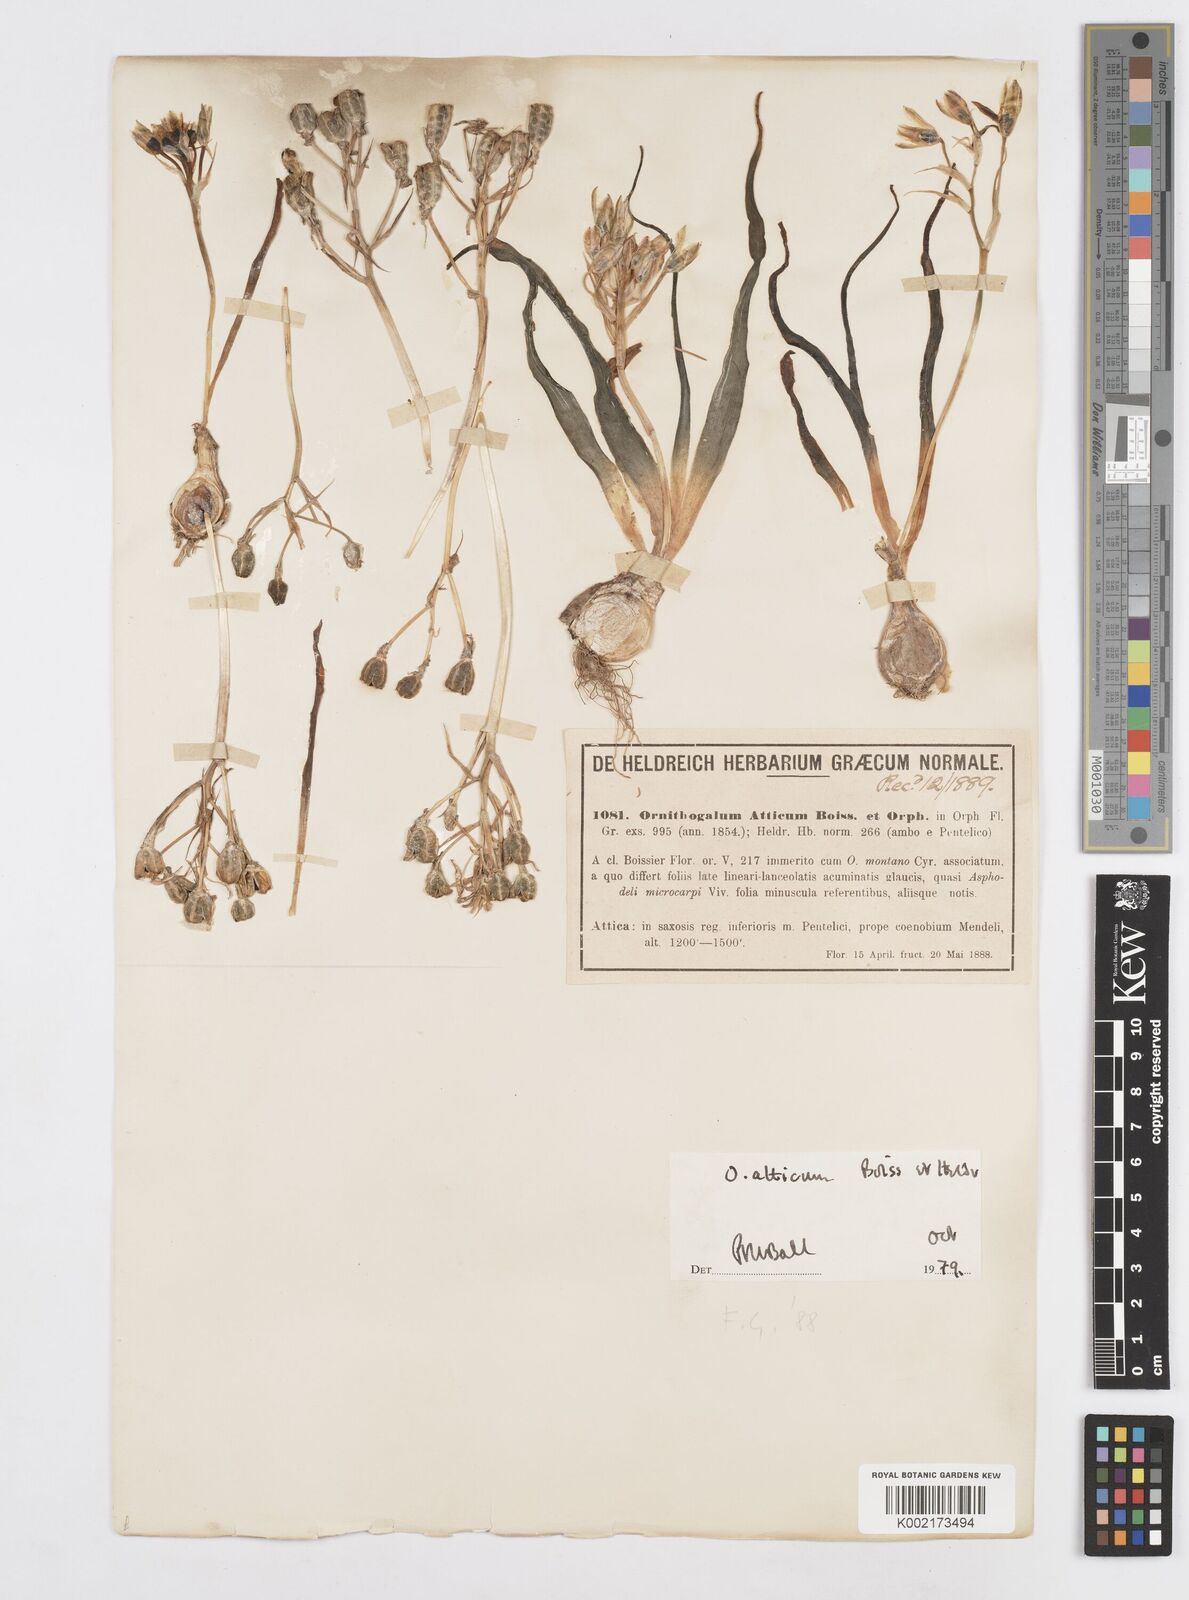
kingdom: Plantae
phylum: Tracheophyta
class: Liliopsida
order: Asparagales
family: Asparagaceae
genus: Ornithogalum
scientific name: Ornithogalum montanum
